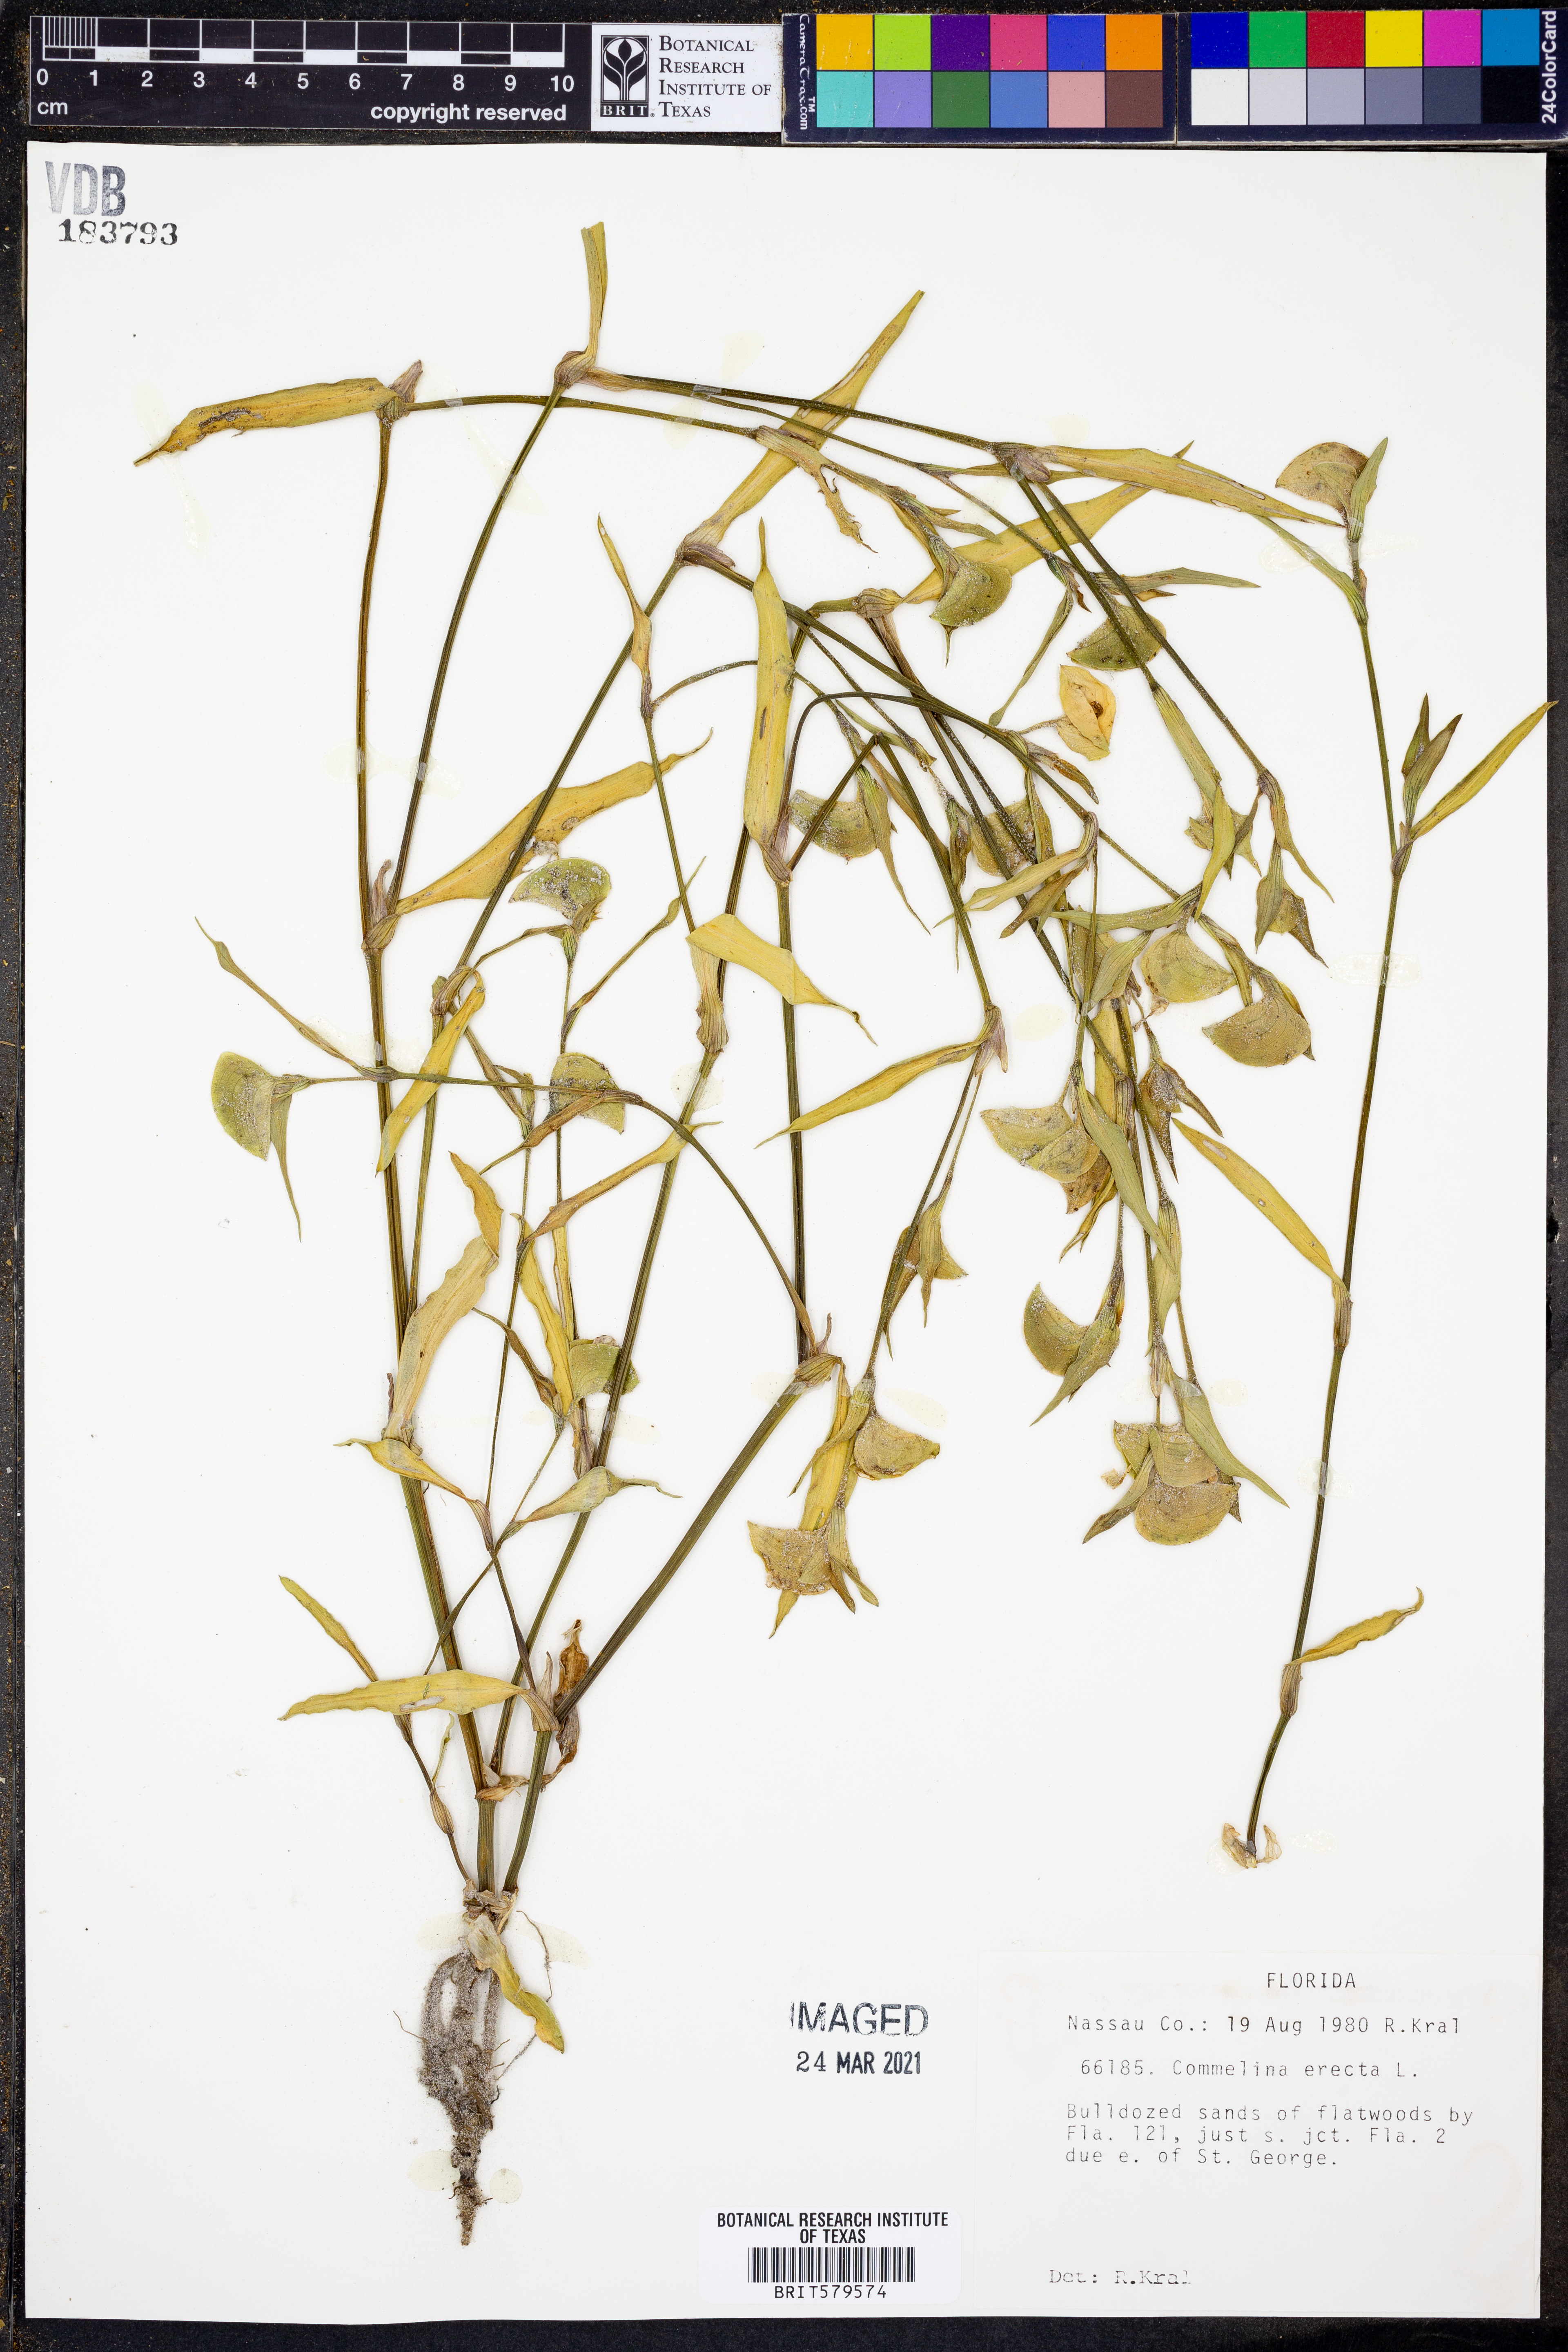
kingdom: Plantae
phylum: Tracheophyta
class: Liliopsida
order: Commelinales
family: Commelinaceae
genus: Commelina
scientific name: Commelina erecta
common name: Blousel blommetjie
